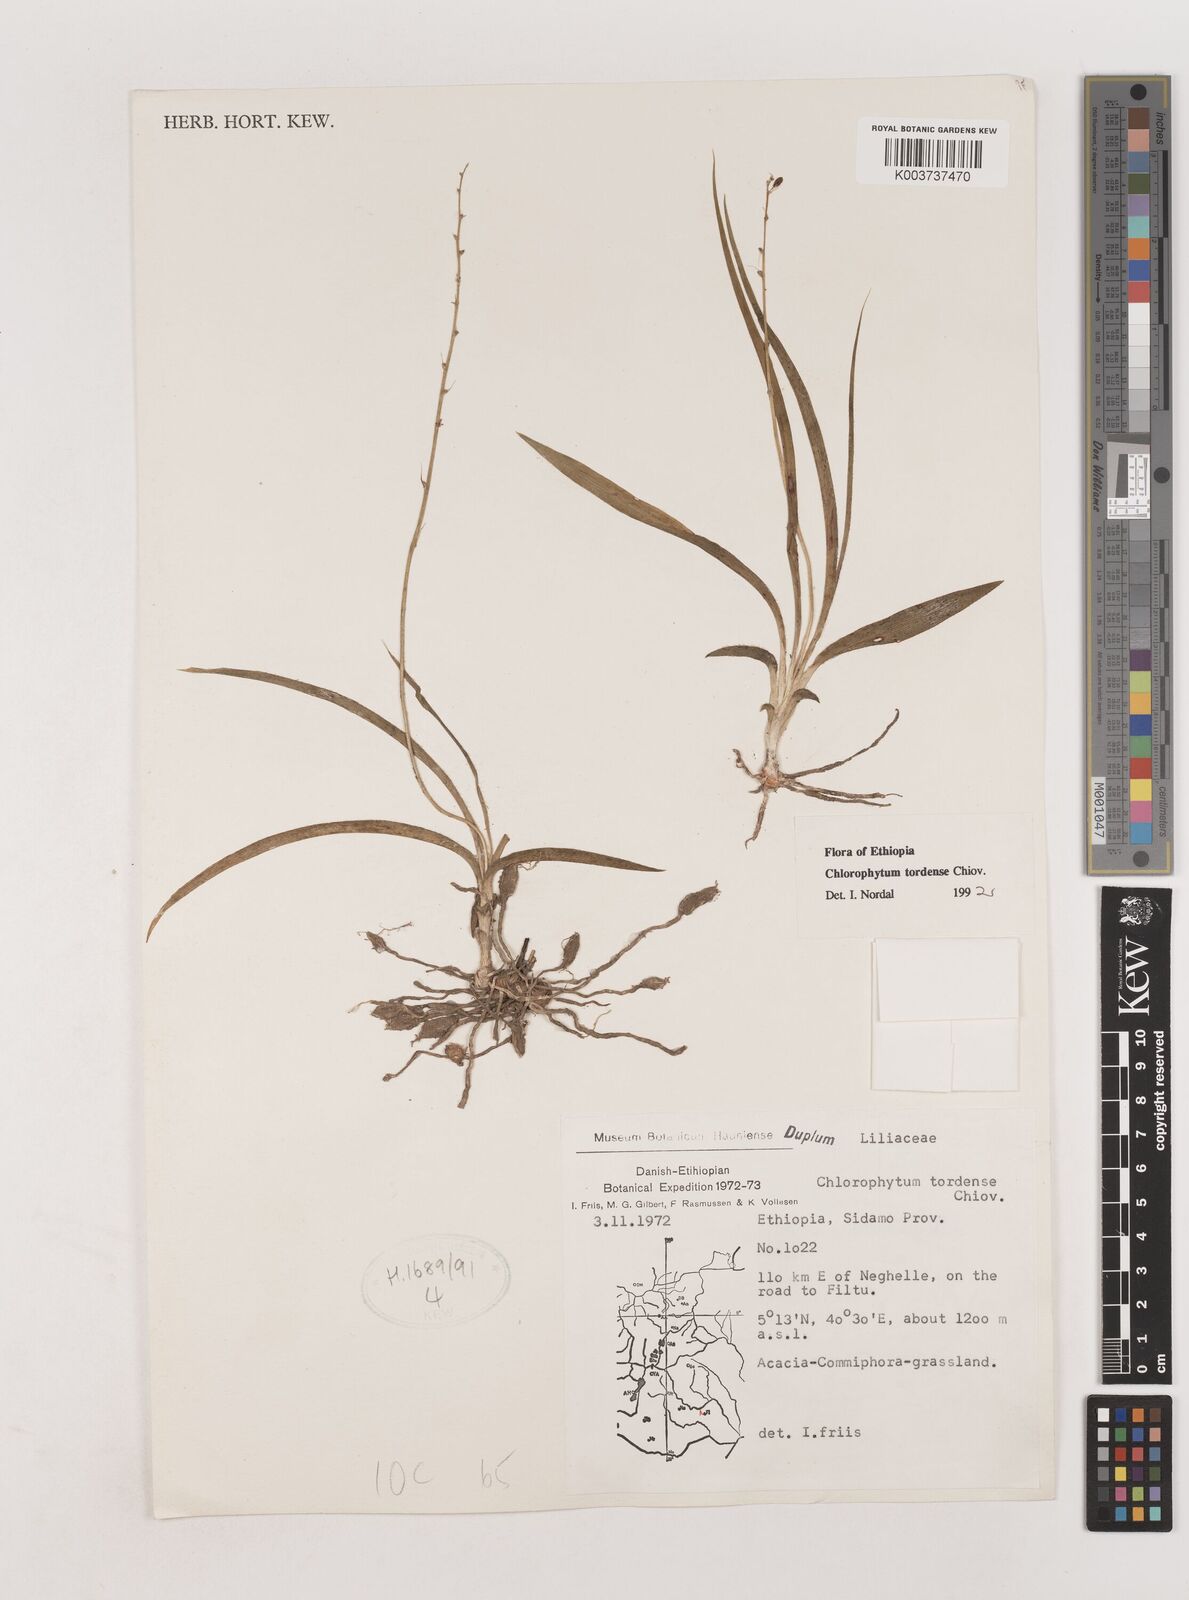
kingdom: Plantae
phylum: Tracheophyta
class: Liliopsida
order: Asparagales
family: Asparagaceae
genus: Chlorophytum
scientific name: Chlorophytum tordense
